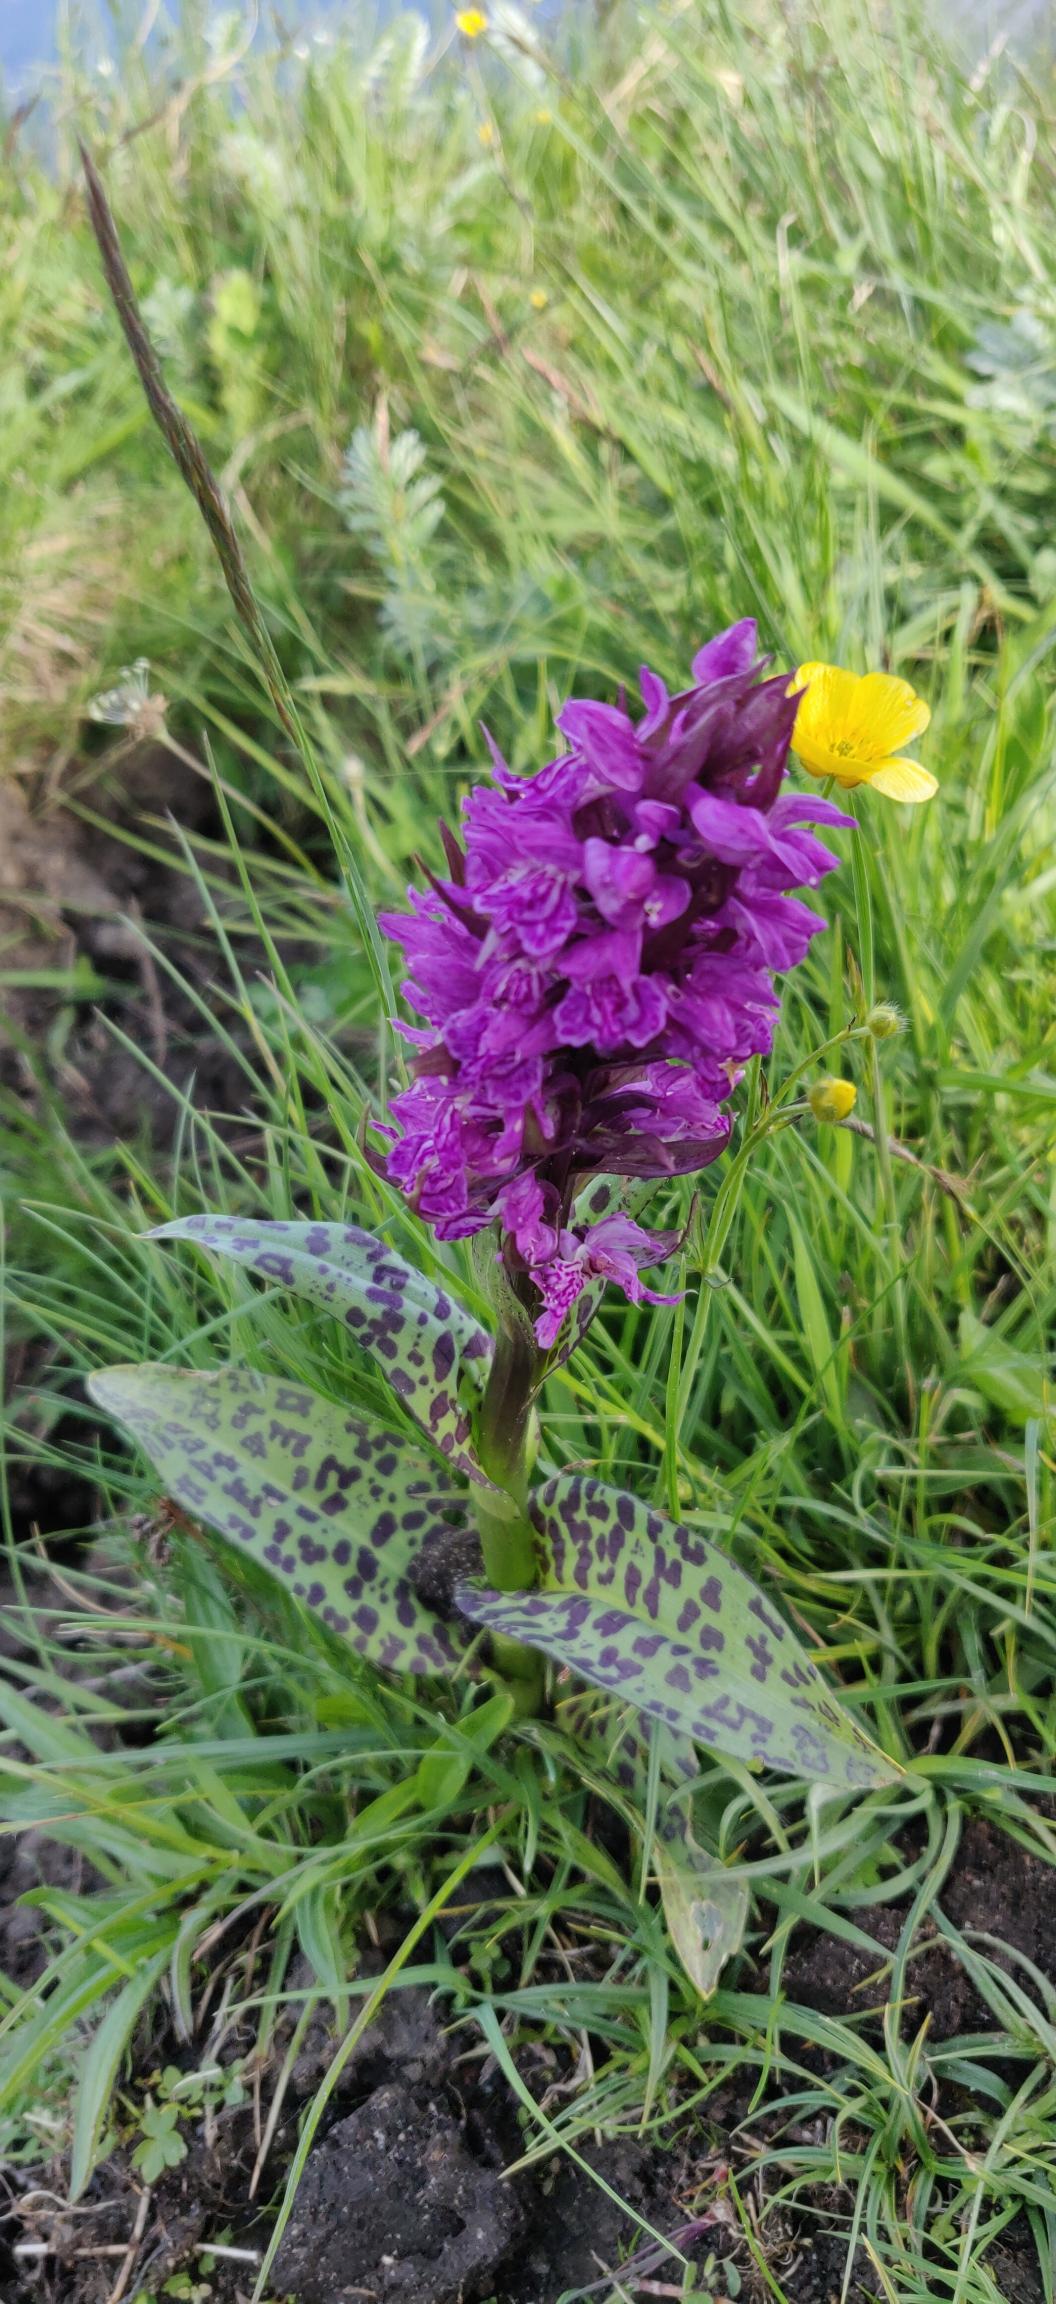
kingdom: Plantae
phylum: Tracheophyta
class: Liliopsida
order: Asparagales
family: Orchidaceae
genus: Dactylorhiza
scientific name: Dactylorhiza majalis
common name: Maj-gøgeurt
